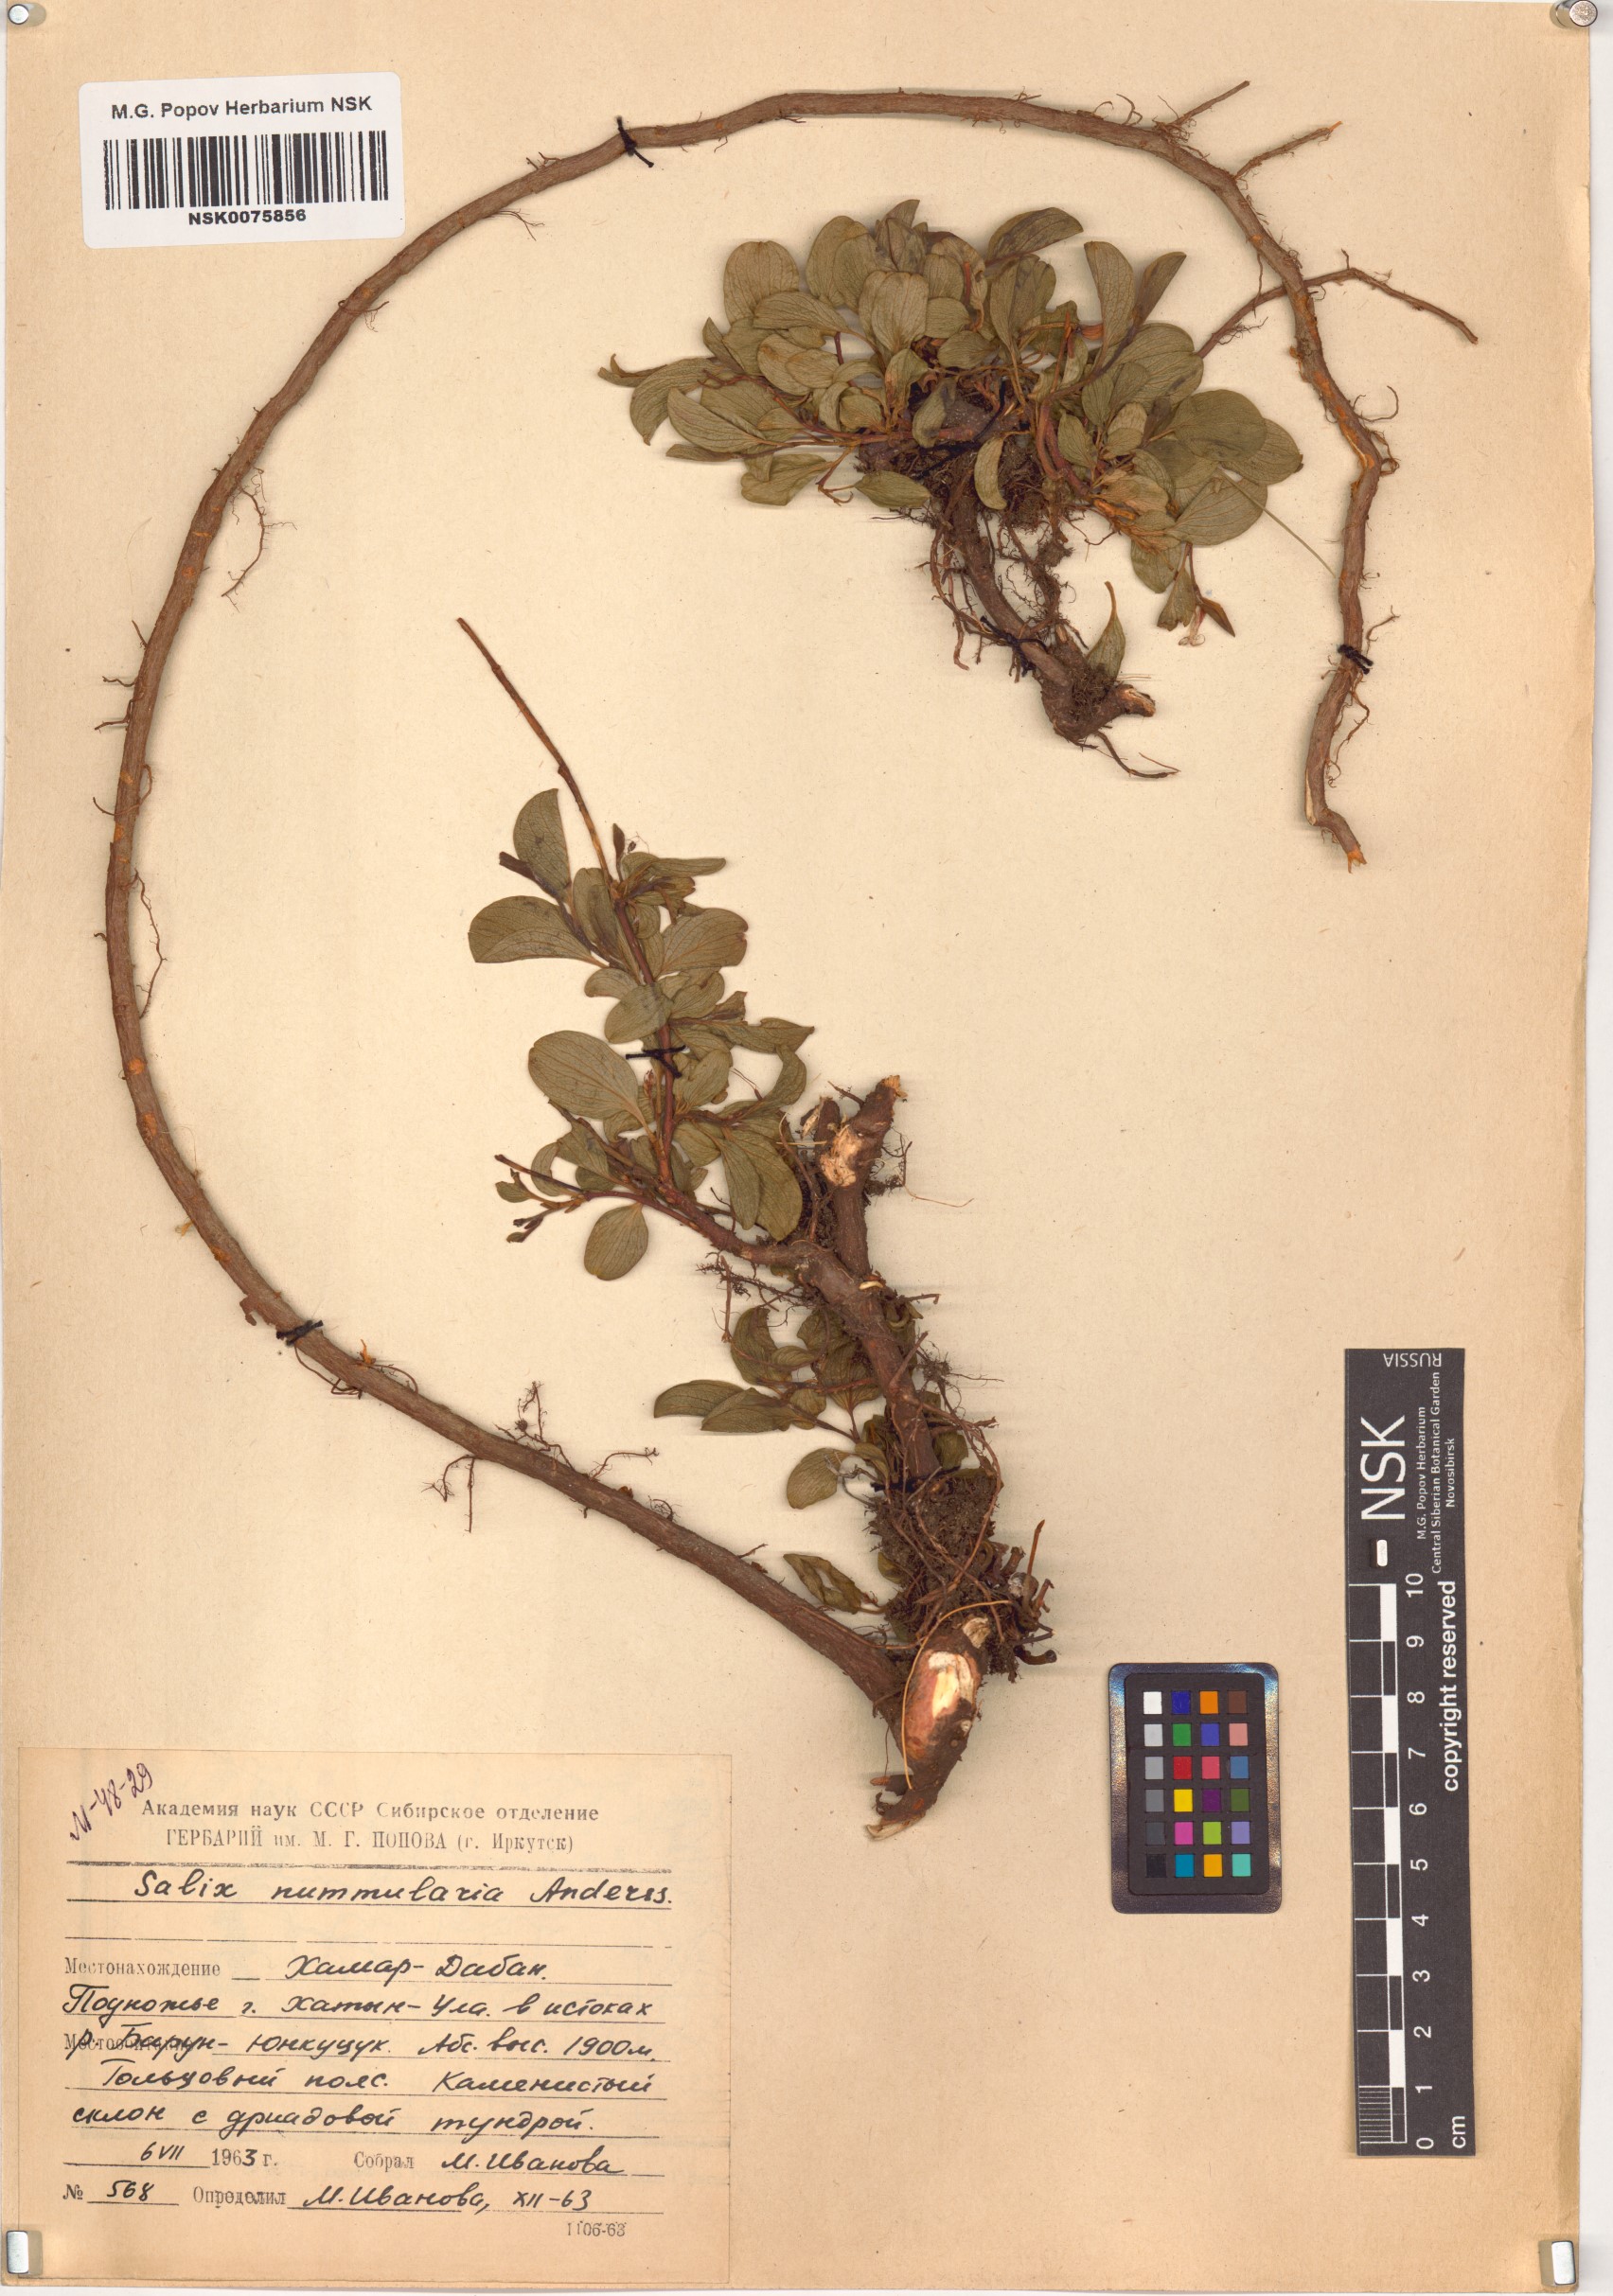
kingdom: Plantae
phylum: Tracheophyta
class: Magnoliopsida
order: Malpighiales
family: Salicaceae
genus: Salix
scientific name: Salix nummularia
